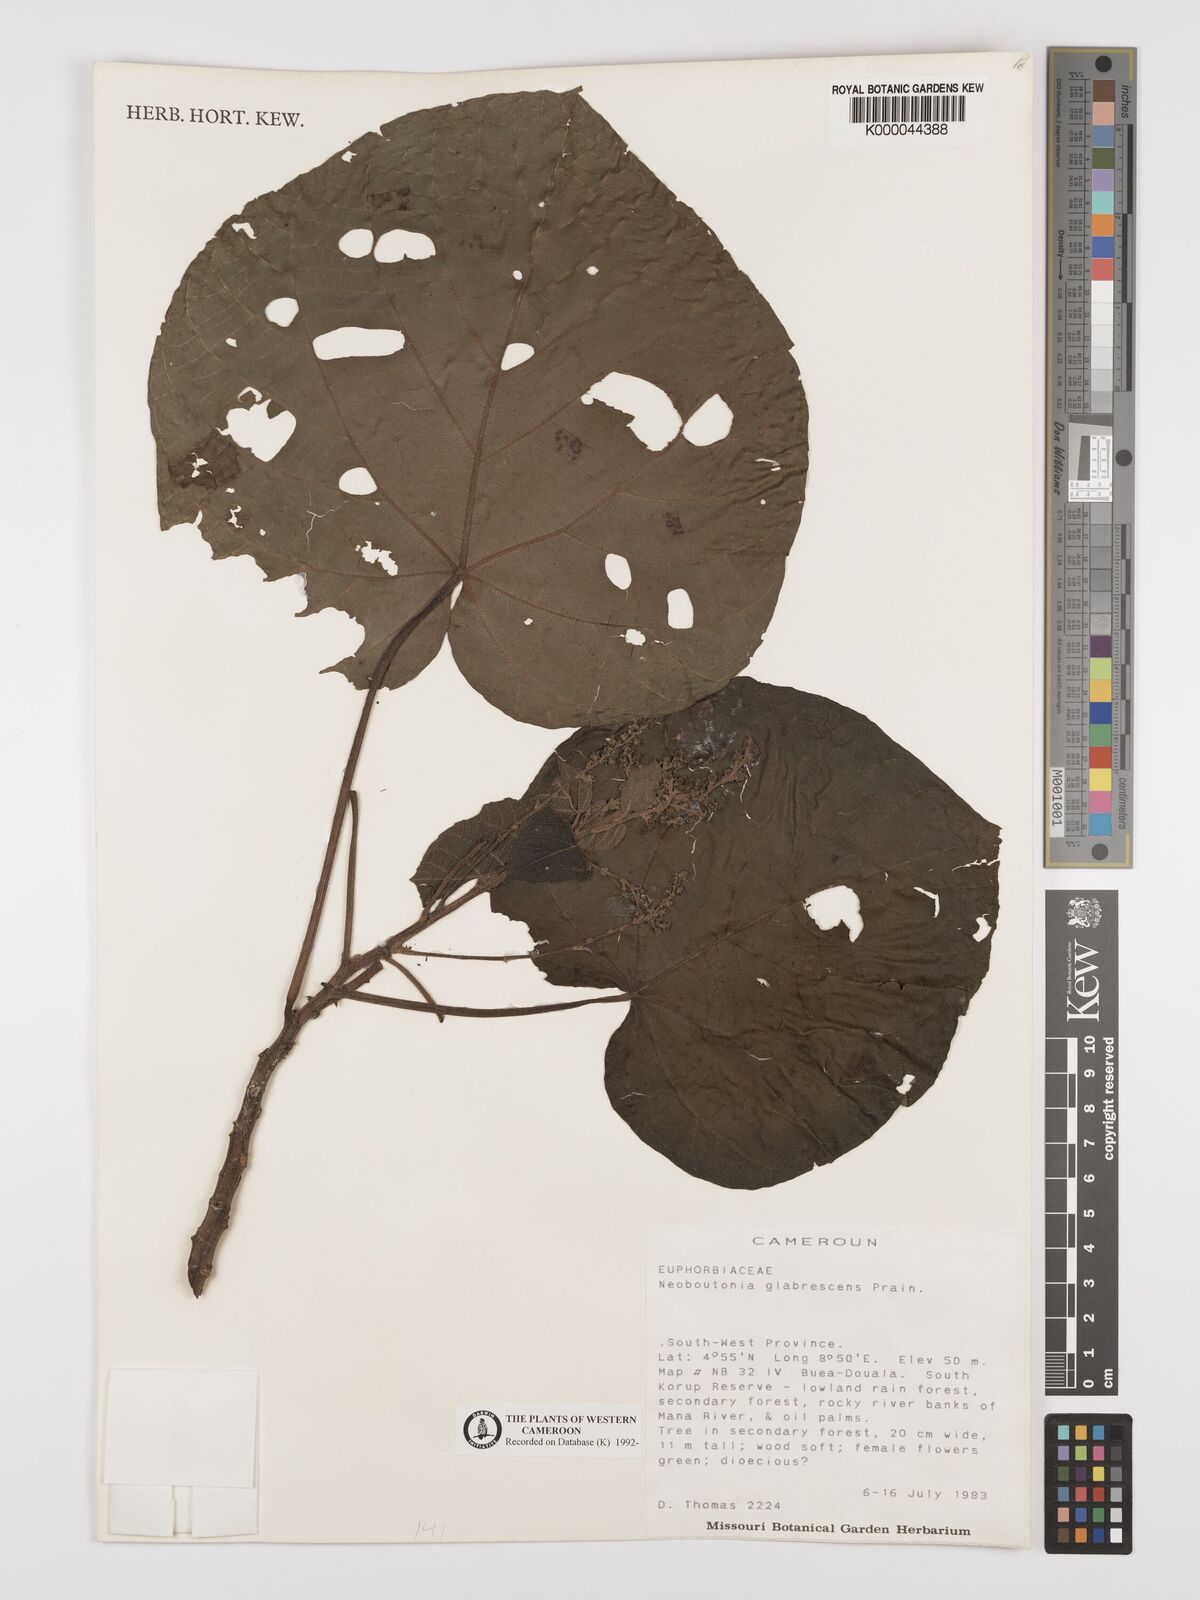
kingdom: Plantae
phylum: Tracheophyta
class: Magnoliopsida
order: Malpighiales
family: Euphorbiaceae
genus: Neoboutonia
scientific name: Neoboutonia mannii
